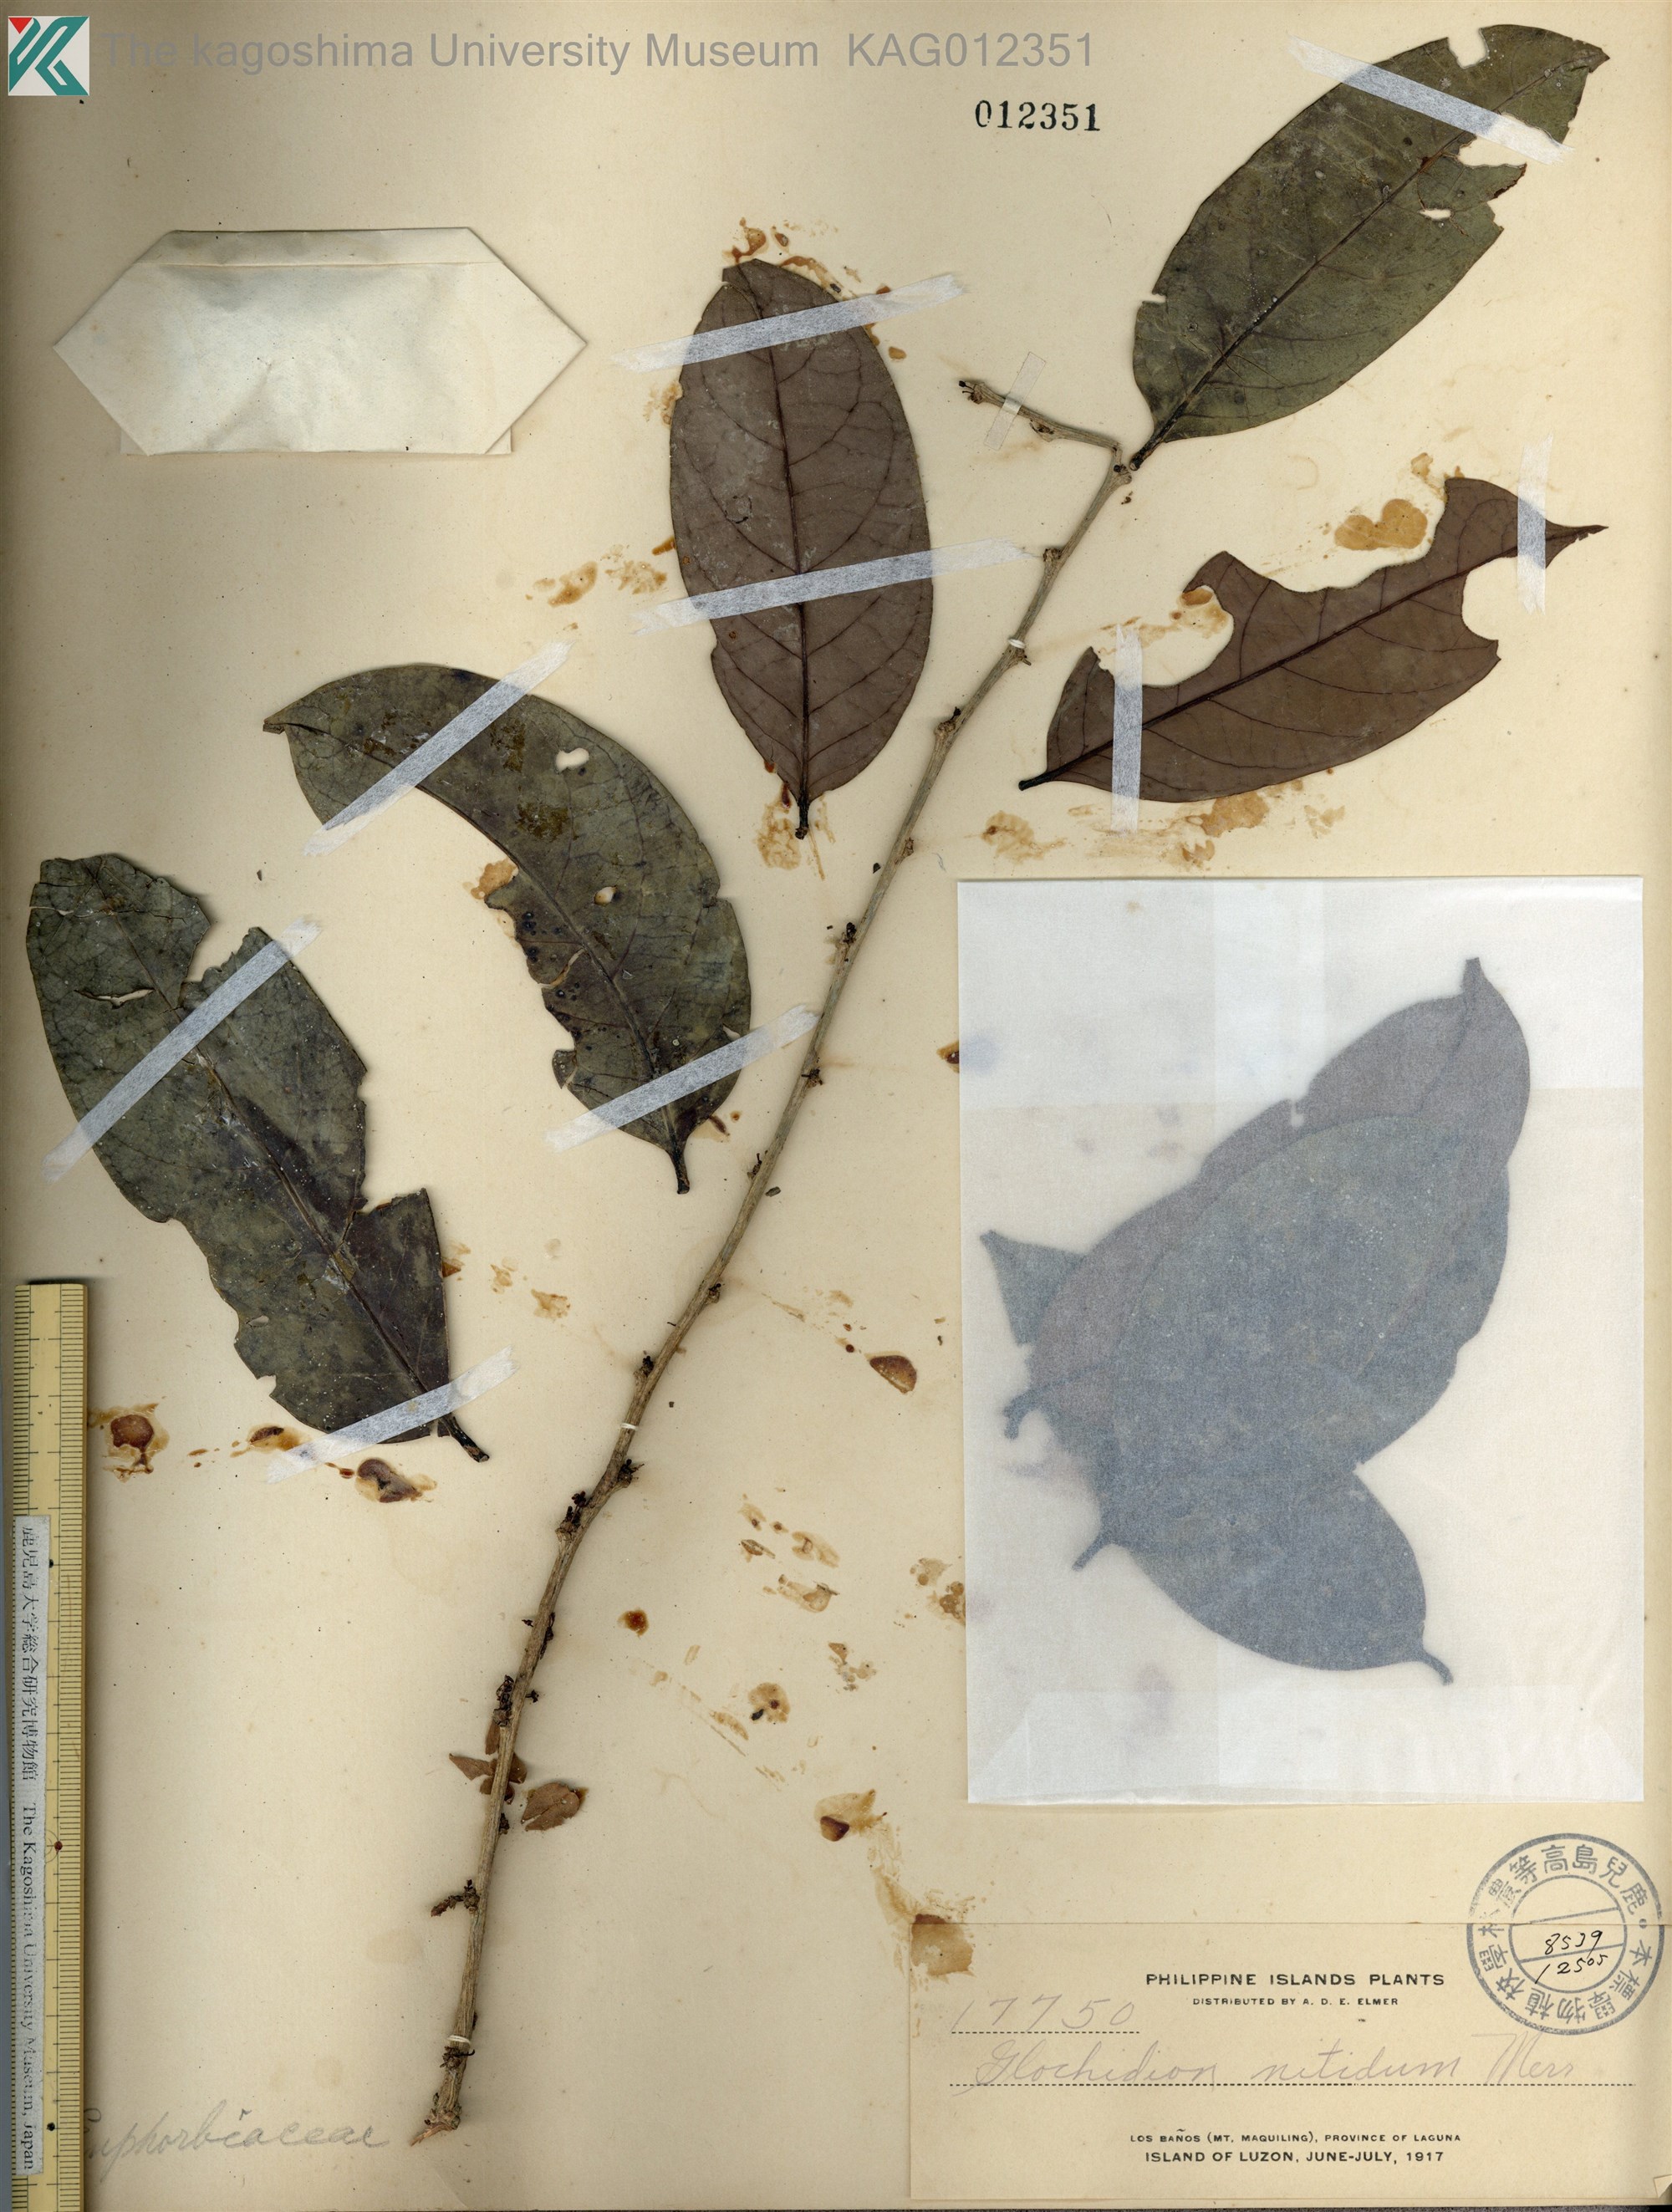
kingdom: Plantae
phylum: Tracheophyta
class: Magnoliopsida
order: Malpighiales
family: Phyllanthaceae
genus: Glochidion
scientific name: Glochidion subfalcatum
